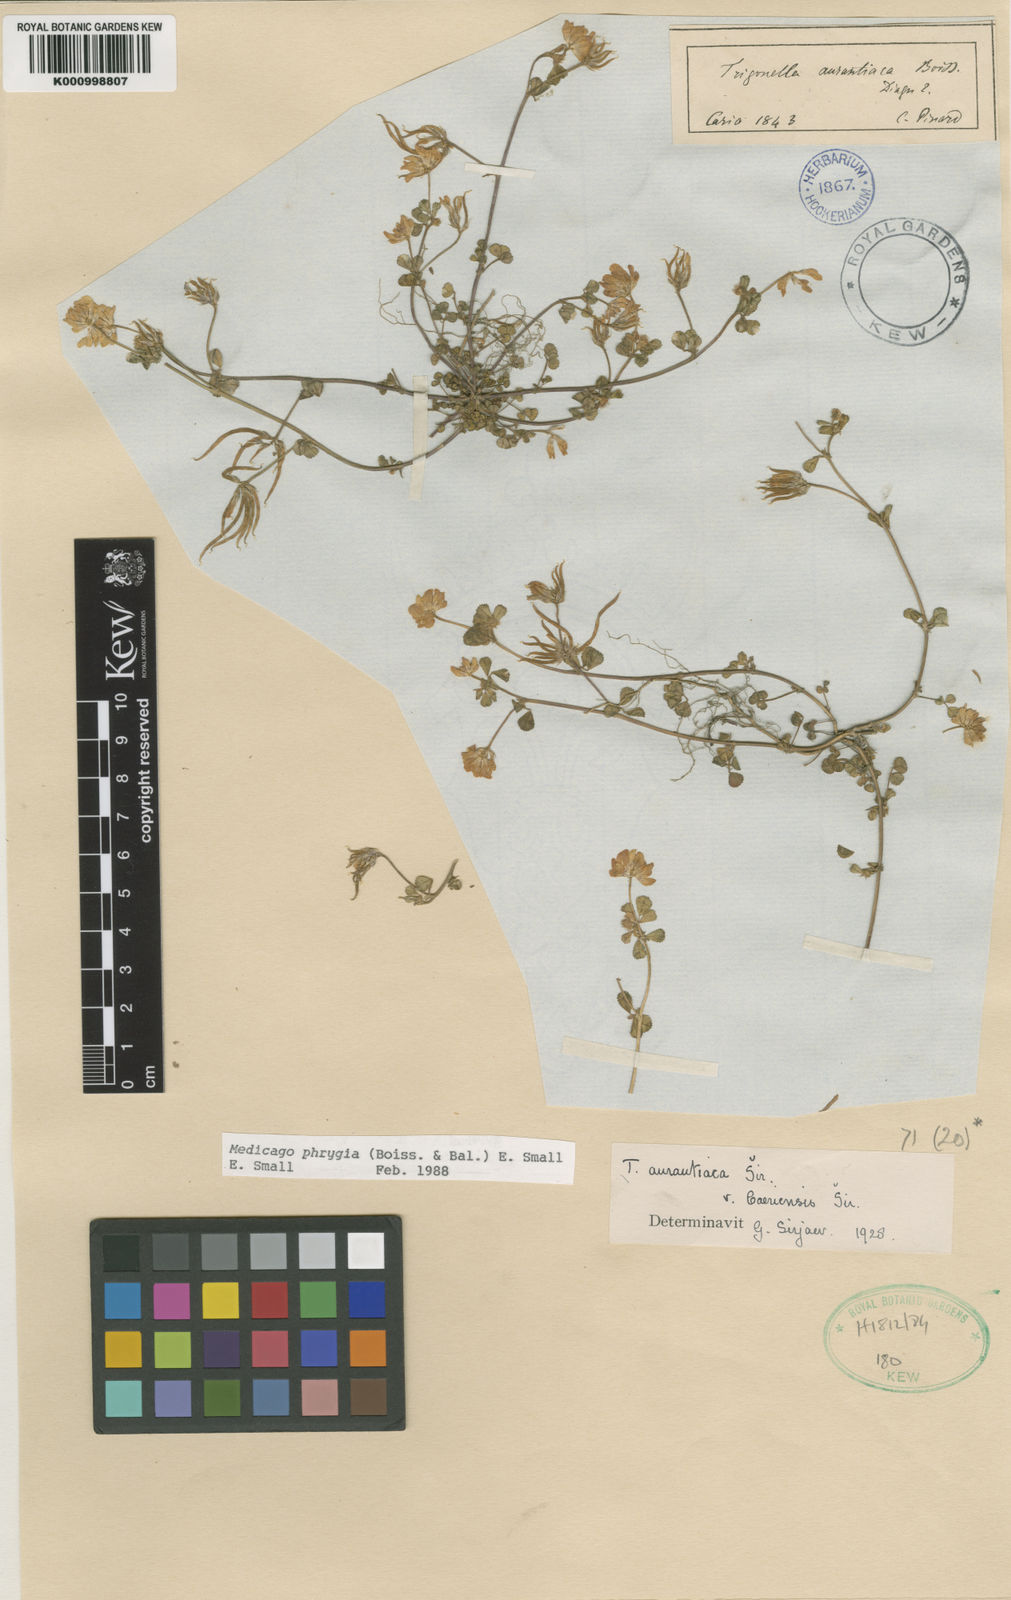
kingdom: Plantae
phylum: Tracheophyta
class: Magnoliopsida
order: Fabales
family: Fabaceae
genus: Medicago
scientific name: Medicago phrygia
